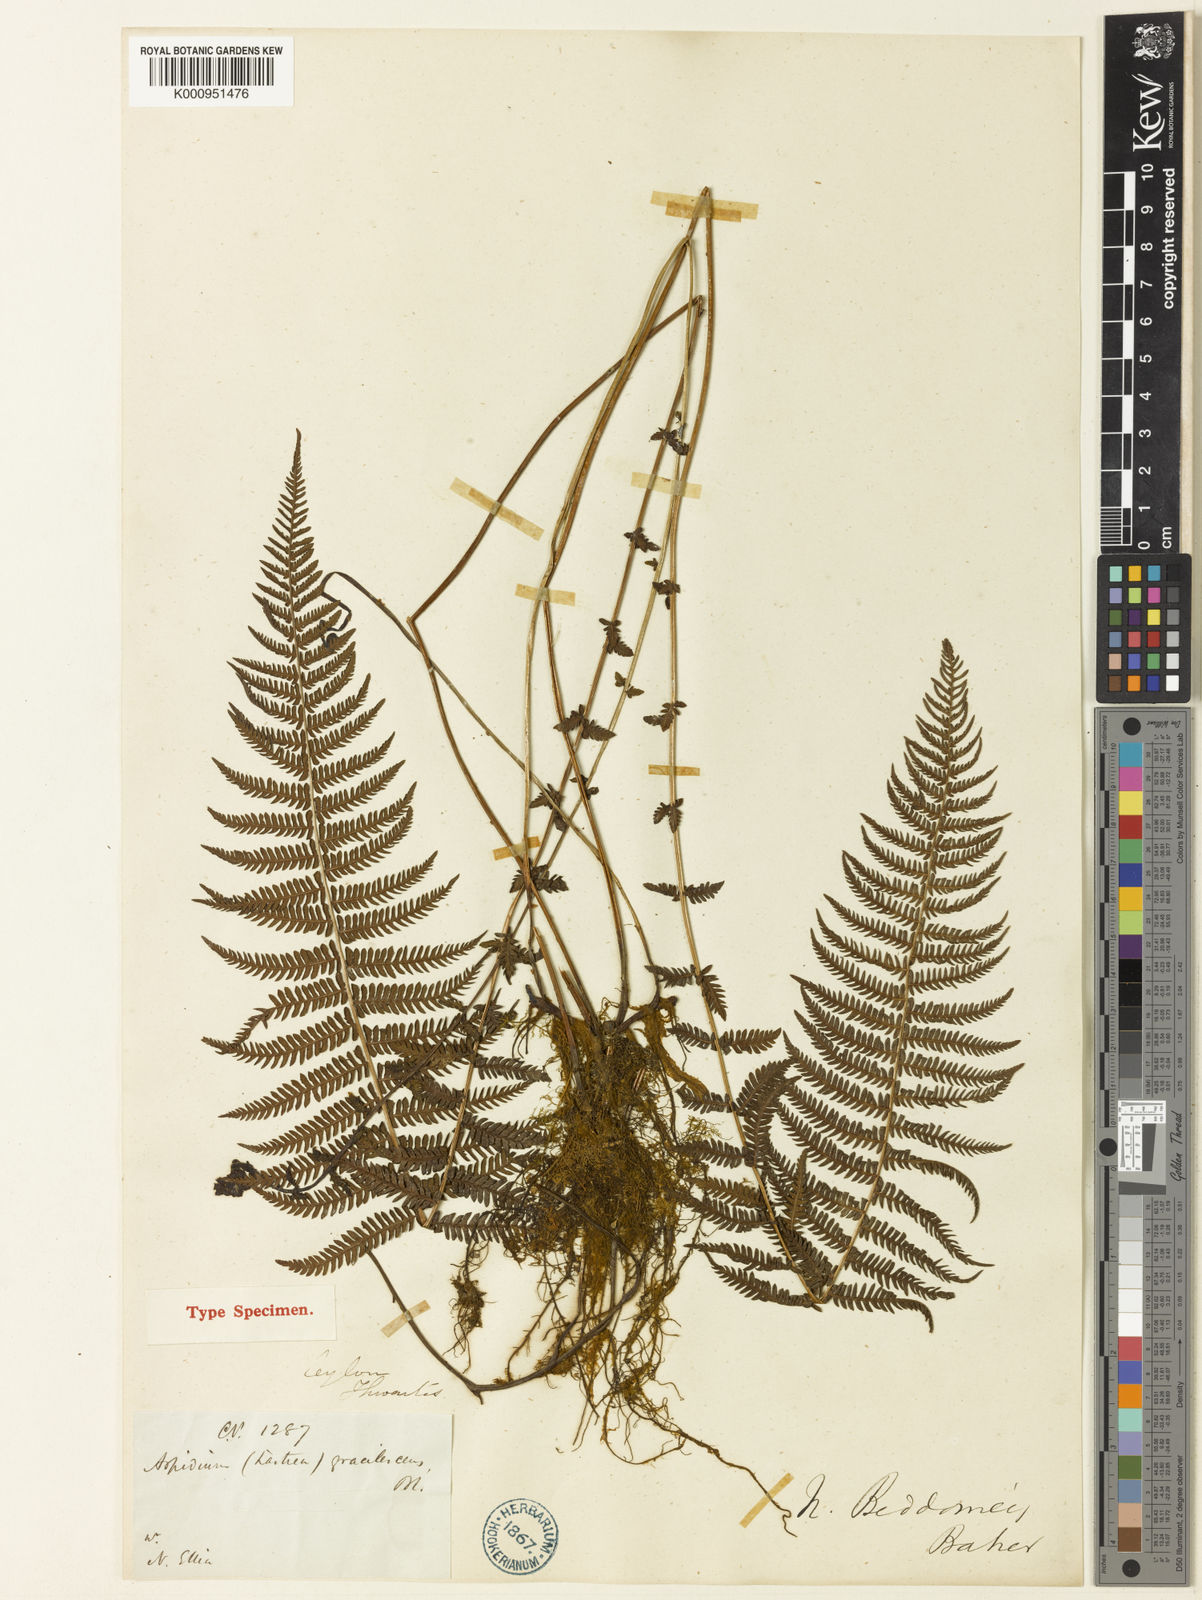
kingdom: Plantae
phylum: Tracheophyta
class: Polypodiopsida
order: Polypodiales
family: Thelypteridaceae
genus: Amauropelta
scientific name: Amauropelta beddomei
